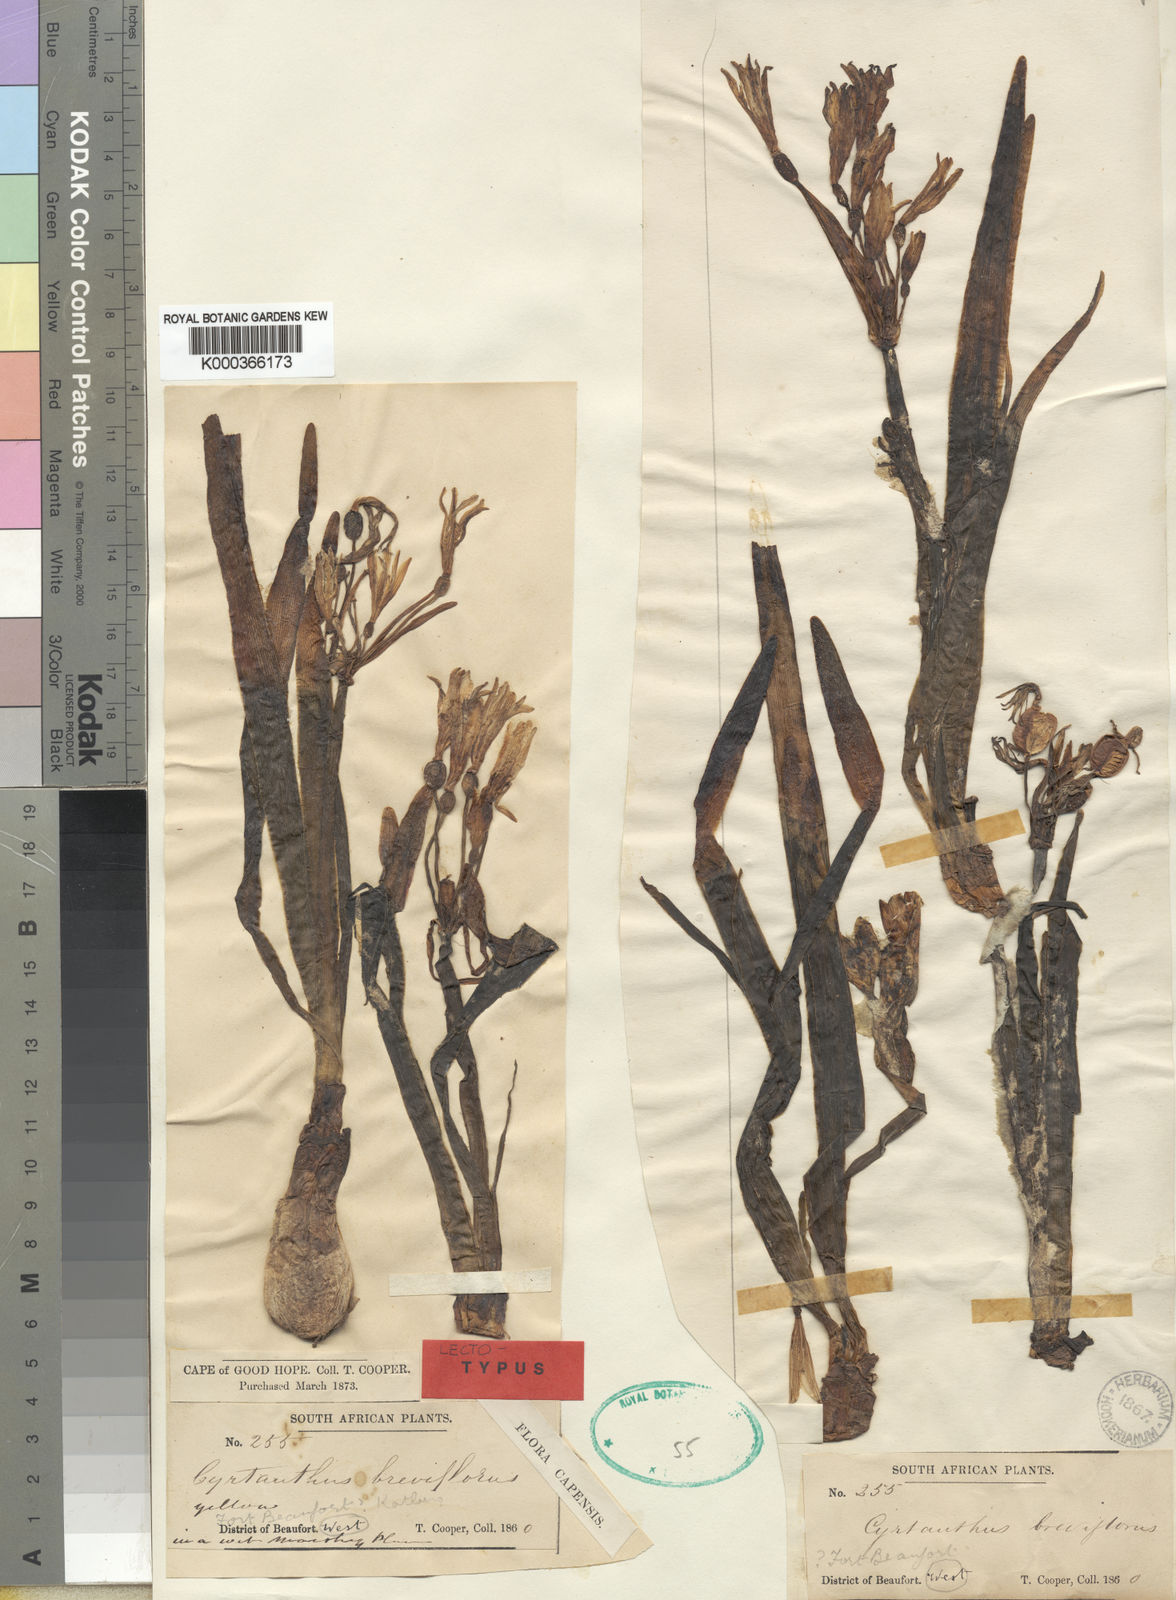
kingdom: Plantae
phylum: Tracheophyta
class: Liliopsida
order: Asparagales
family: Amaryllidaceae
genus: Cyrtanthus
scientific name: Cyrtanthus breviflorus
